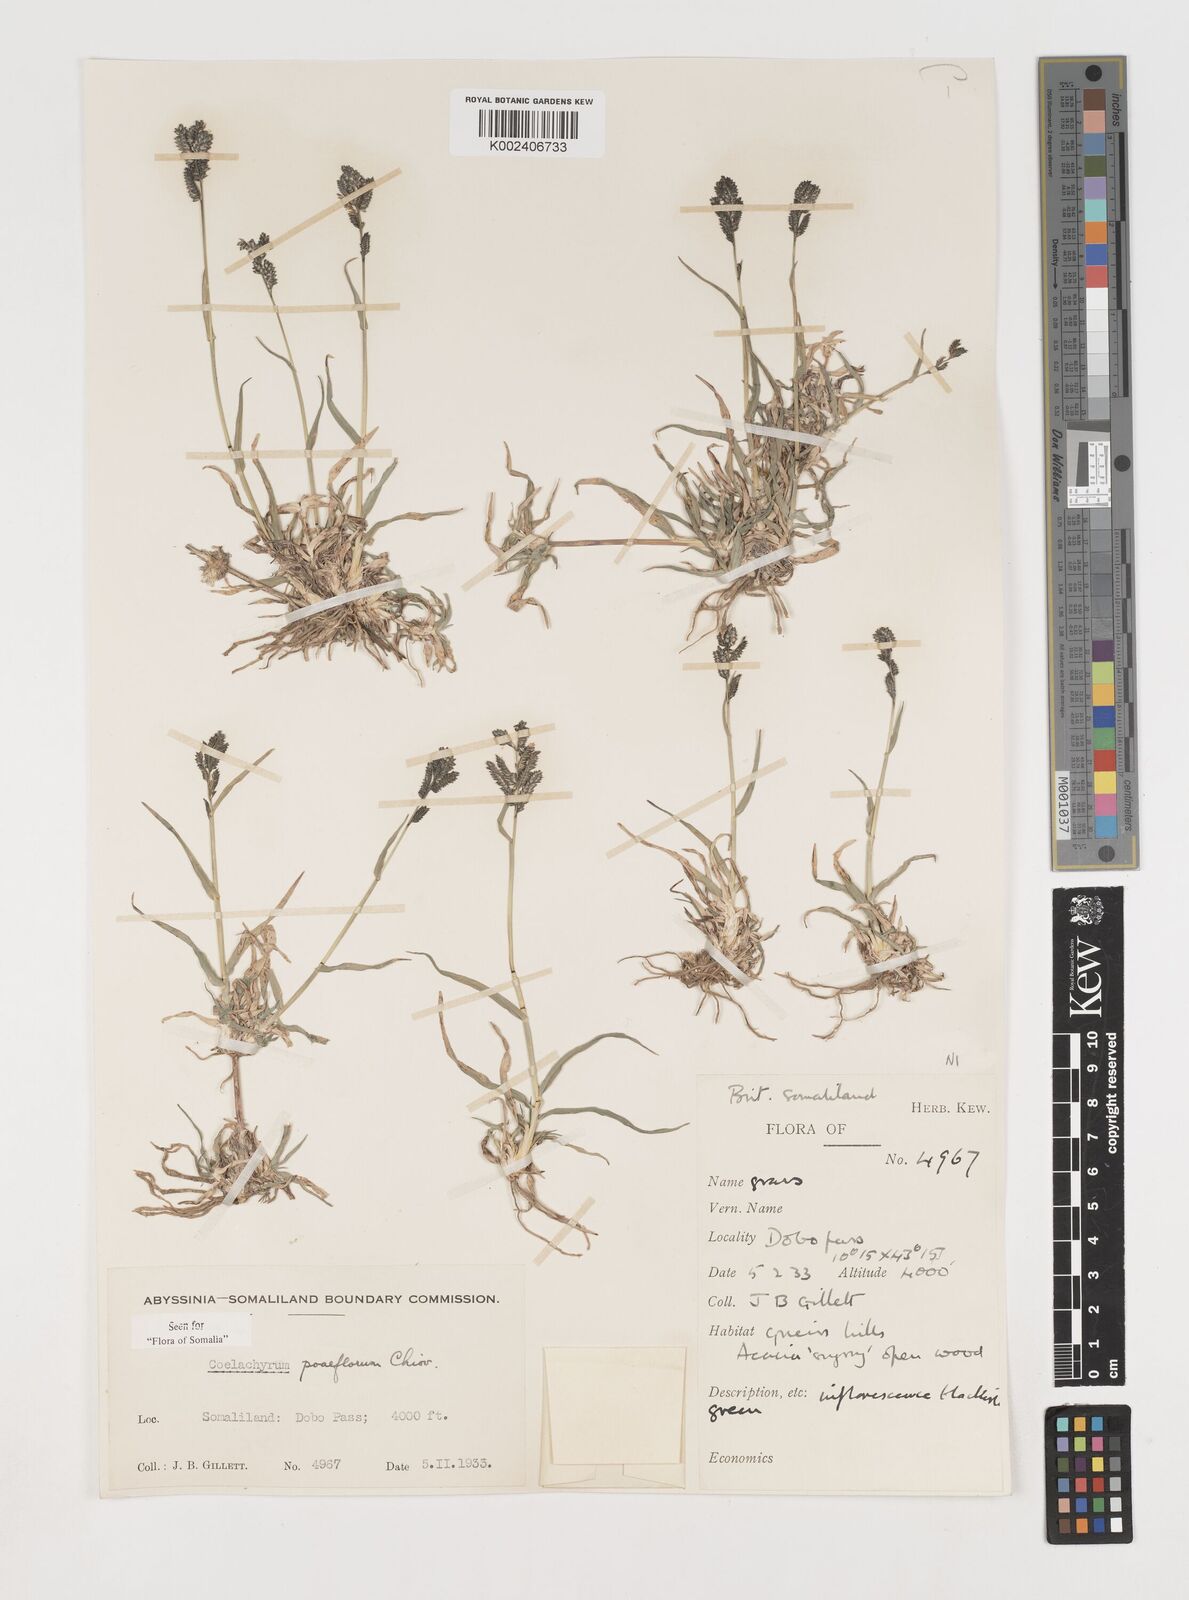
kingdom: Plantae
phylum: Tracheophyta
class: Liliopsida
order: Poales
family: Poaceae
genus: Coelachyrum
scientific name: Coelachyrum poiflorum
